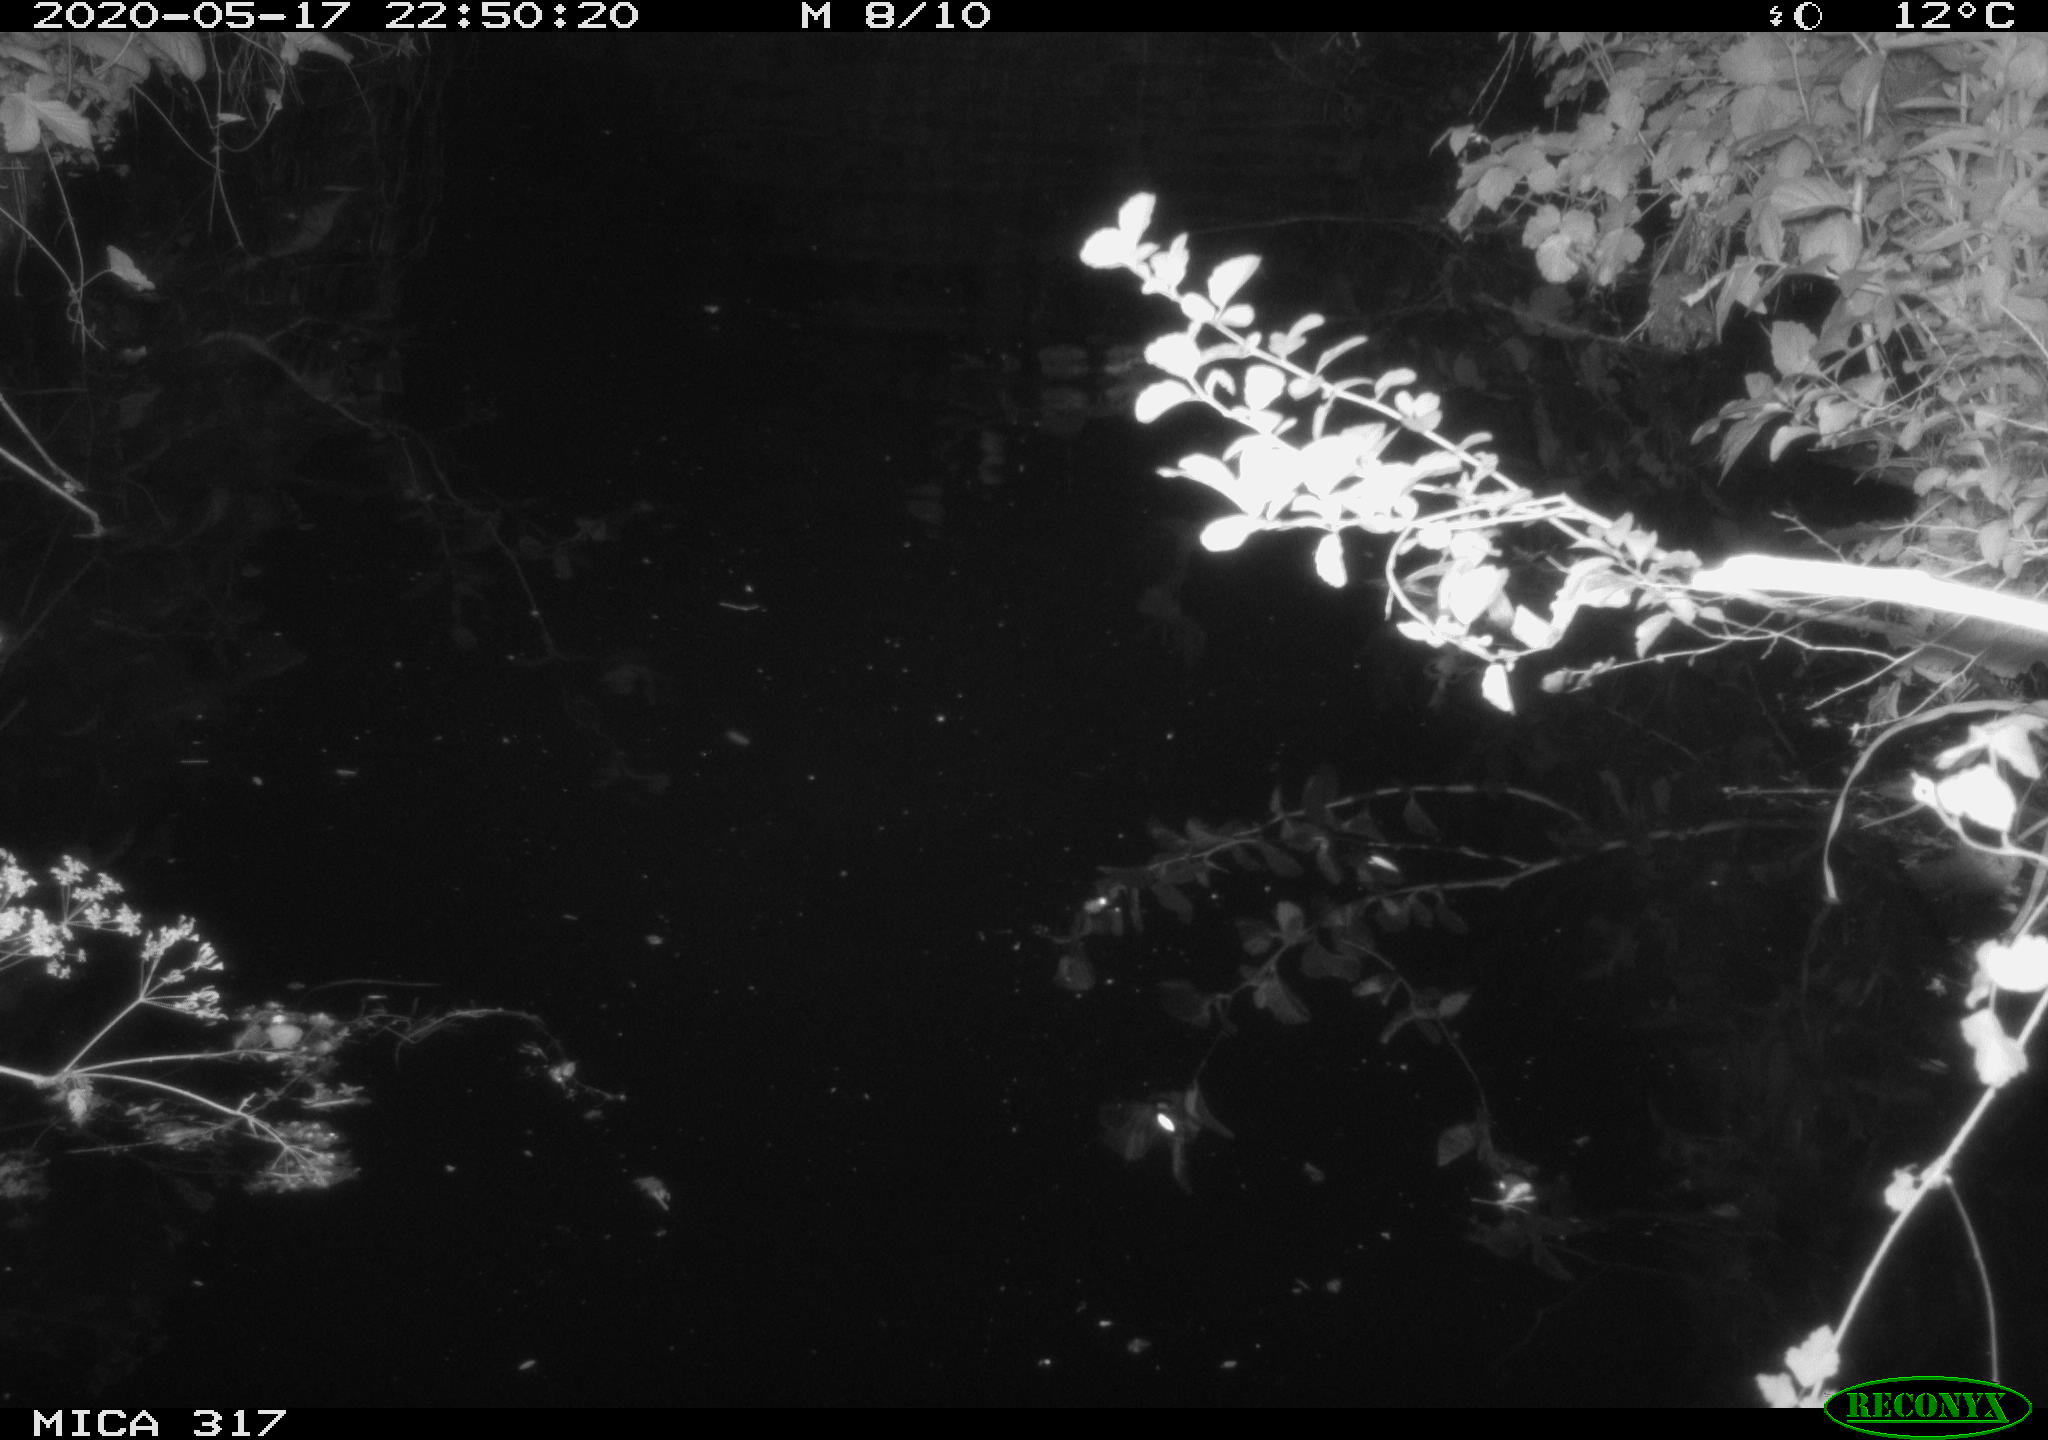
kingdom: Animalia
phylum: Chordata
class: Aves
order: Anseriformes
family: Anatidae
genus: Anas
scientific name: Anas platyrhynchos
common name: Mallard
